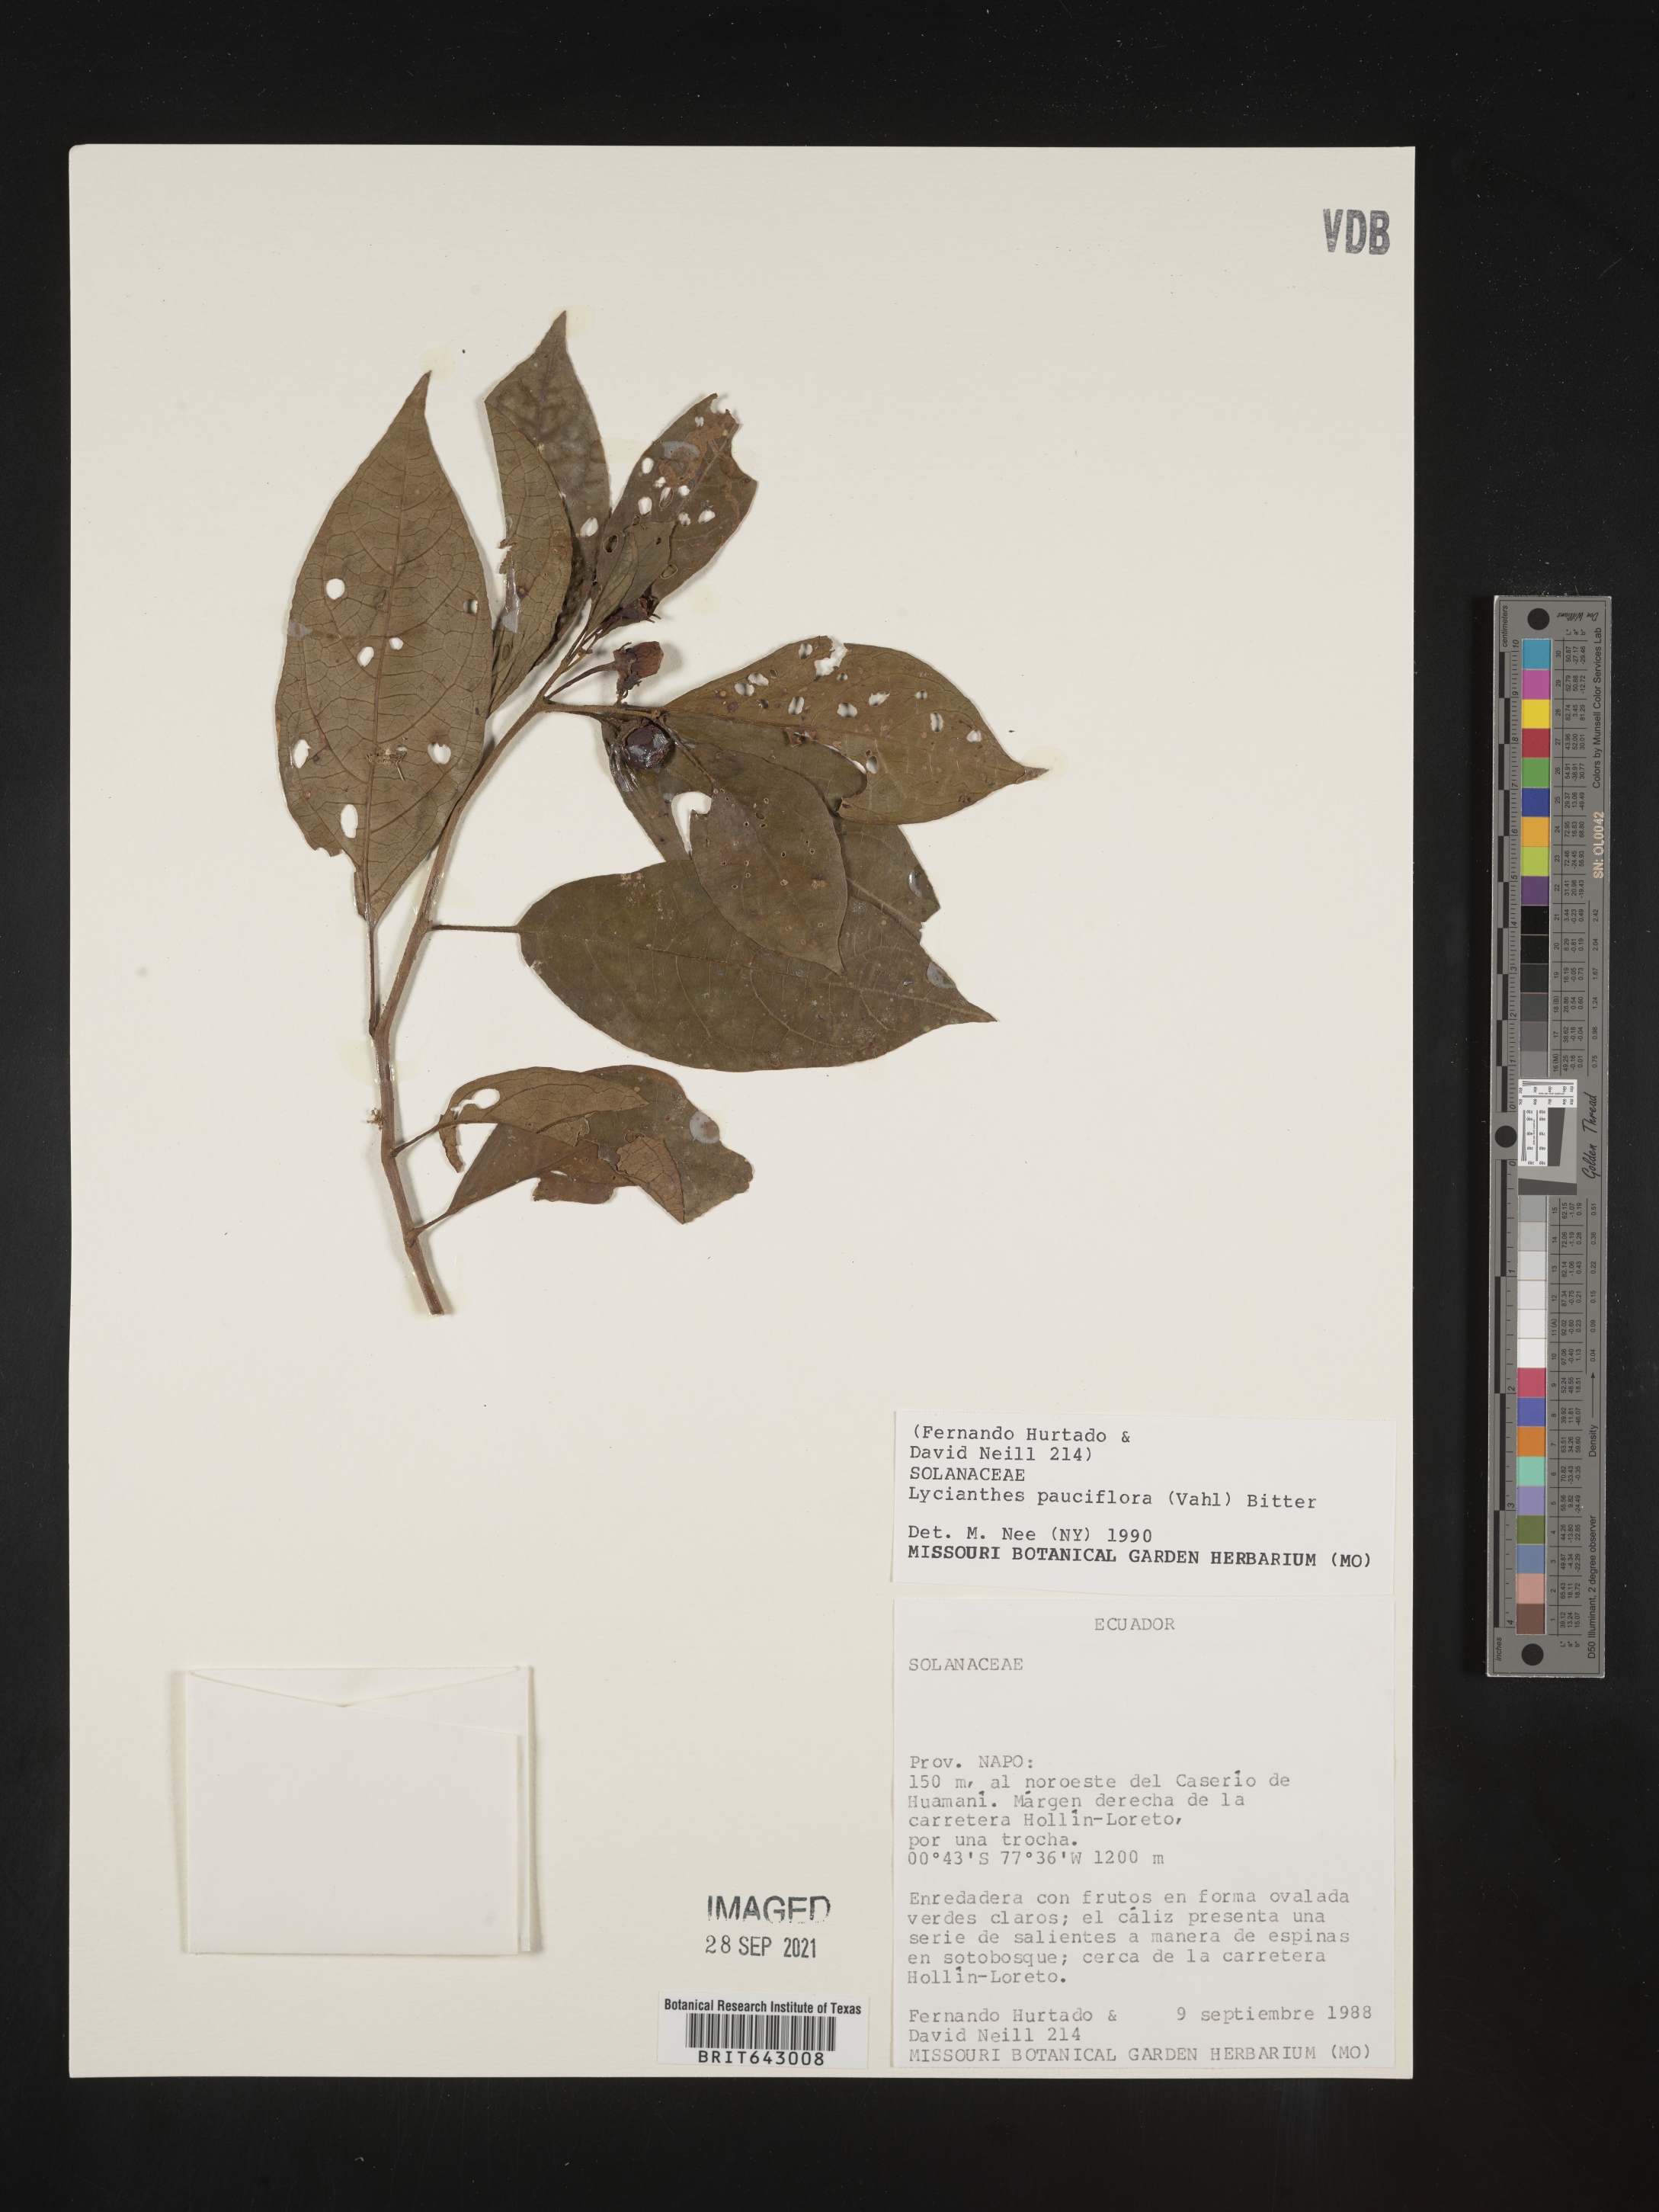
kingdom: Plantae
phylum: Tracheophyta
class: Magnoliopsida
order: Solanales
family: Solanaceae
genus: Lycianthes
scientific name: Lycianthes
